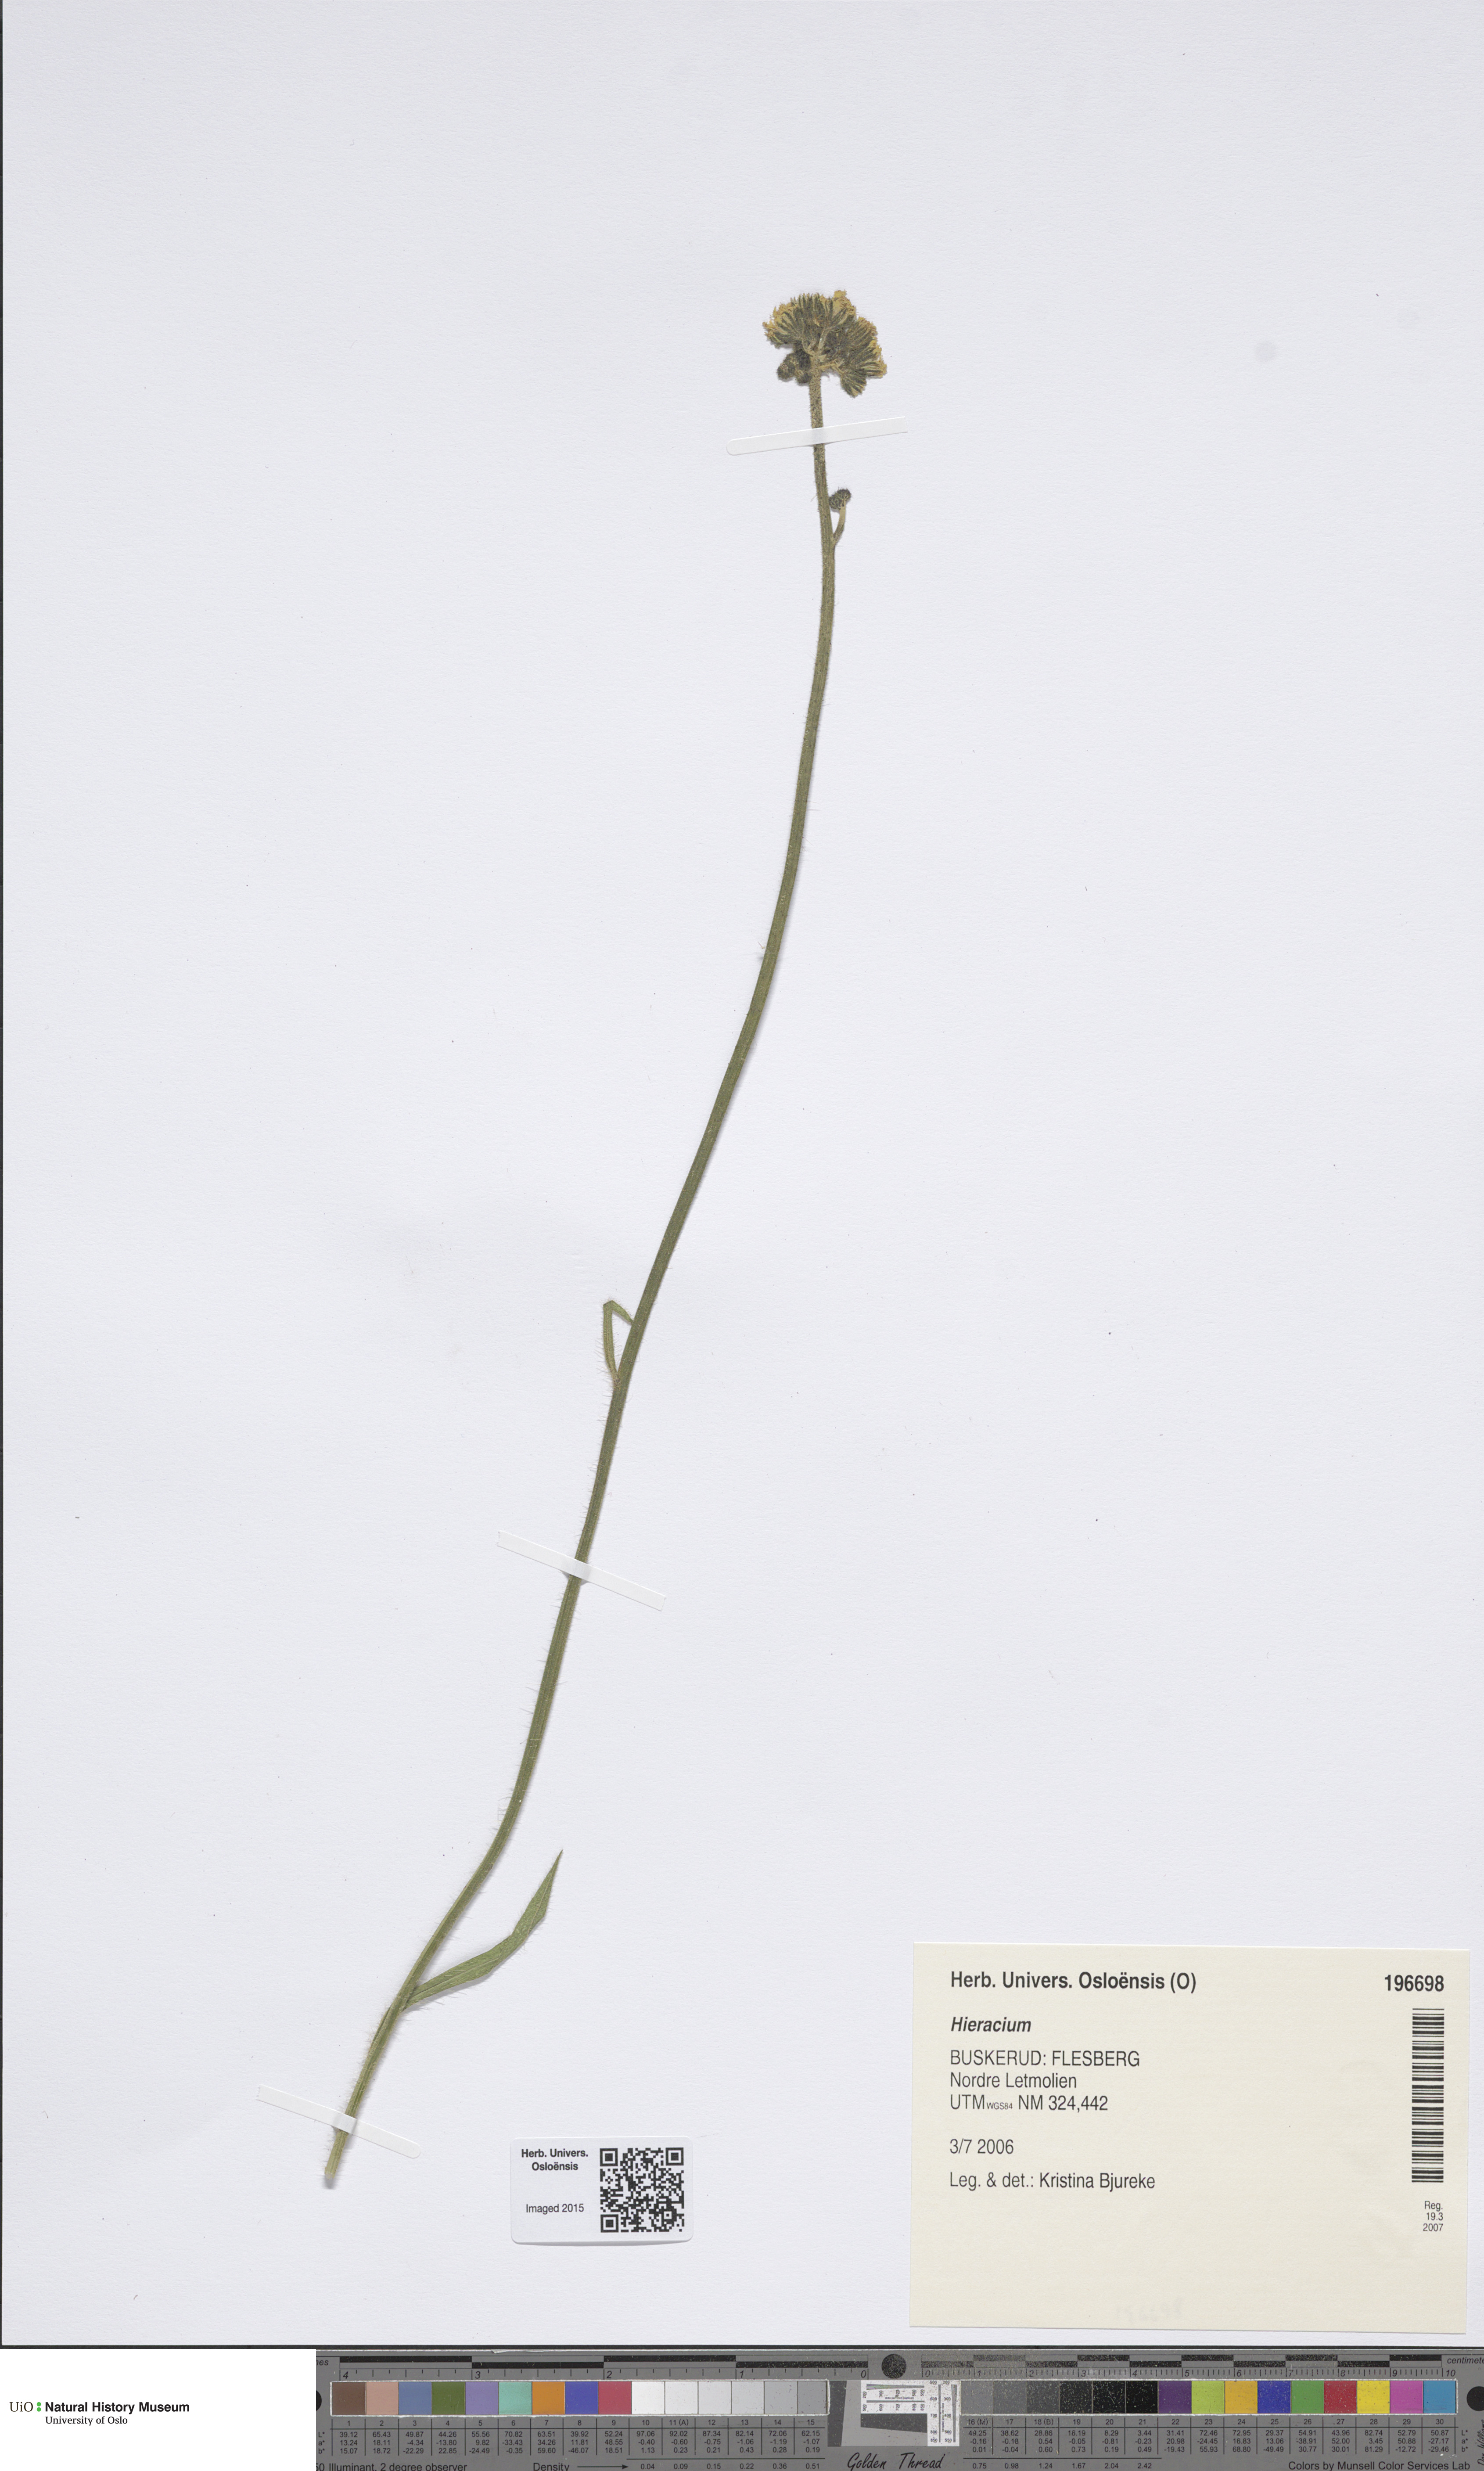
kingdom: Plantae
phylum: Tracheophyta
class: Magnoliopsida
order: Asterales
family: Asteraceae
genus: Hieracium
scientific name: Hieracium
